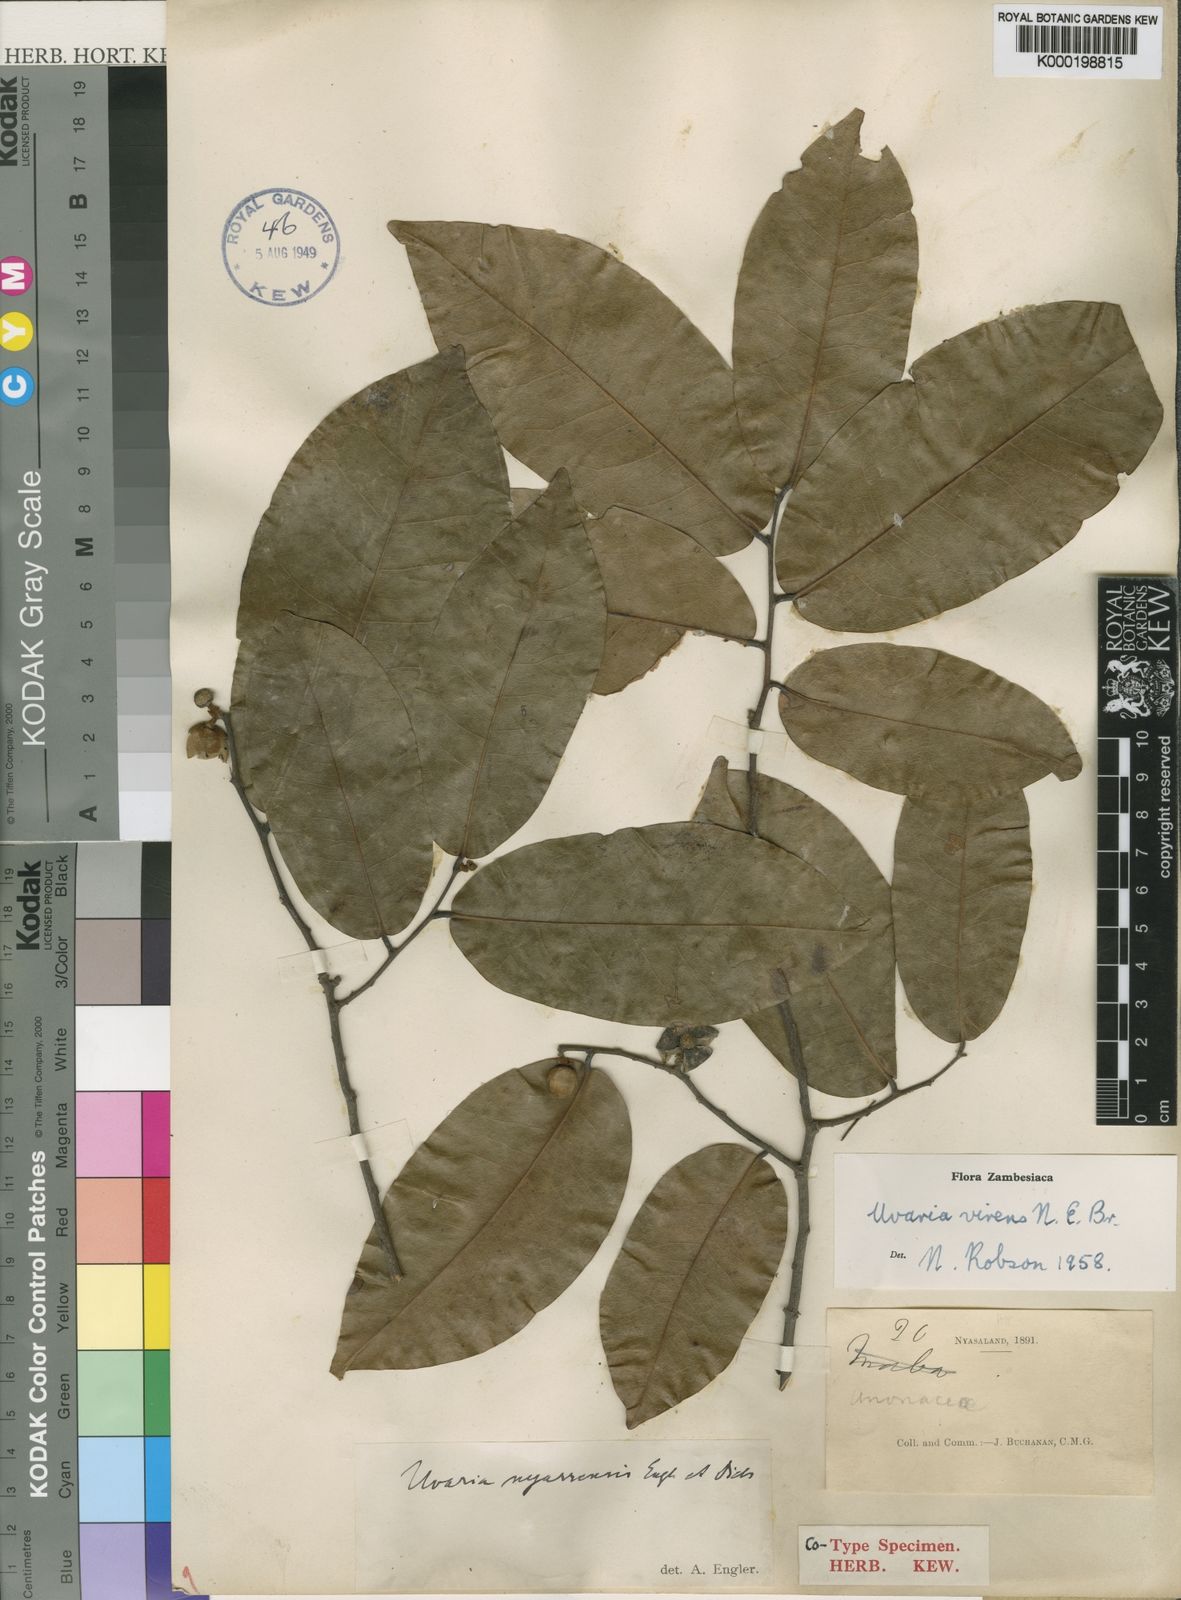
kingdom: Plantae
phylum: Tracheophyta
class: Magnoliopsida
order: Magnoliales
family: Annonaceae
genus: Uvaria
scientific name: Uvaria lucida
